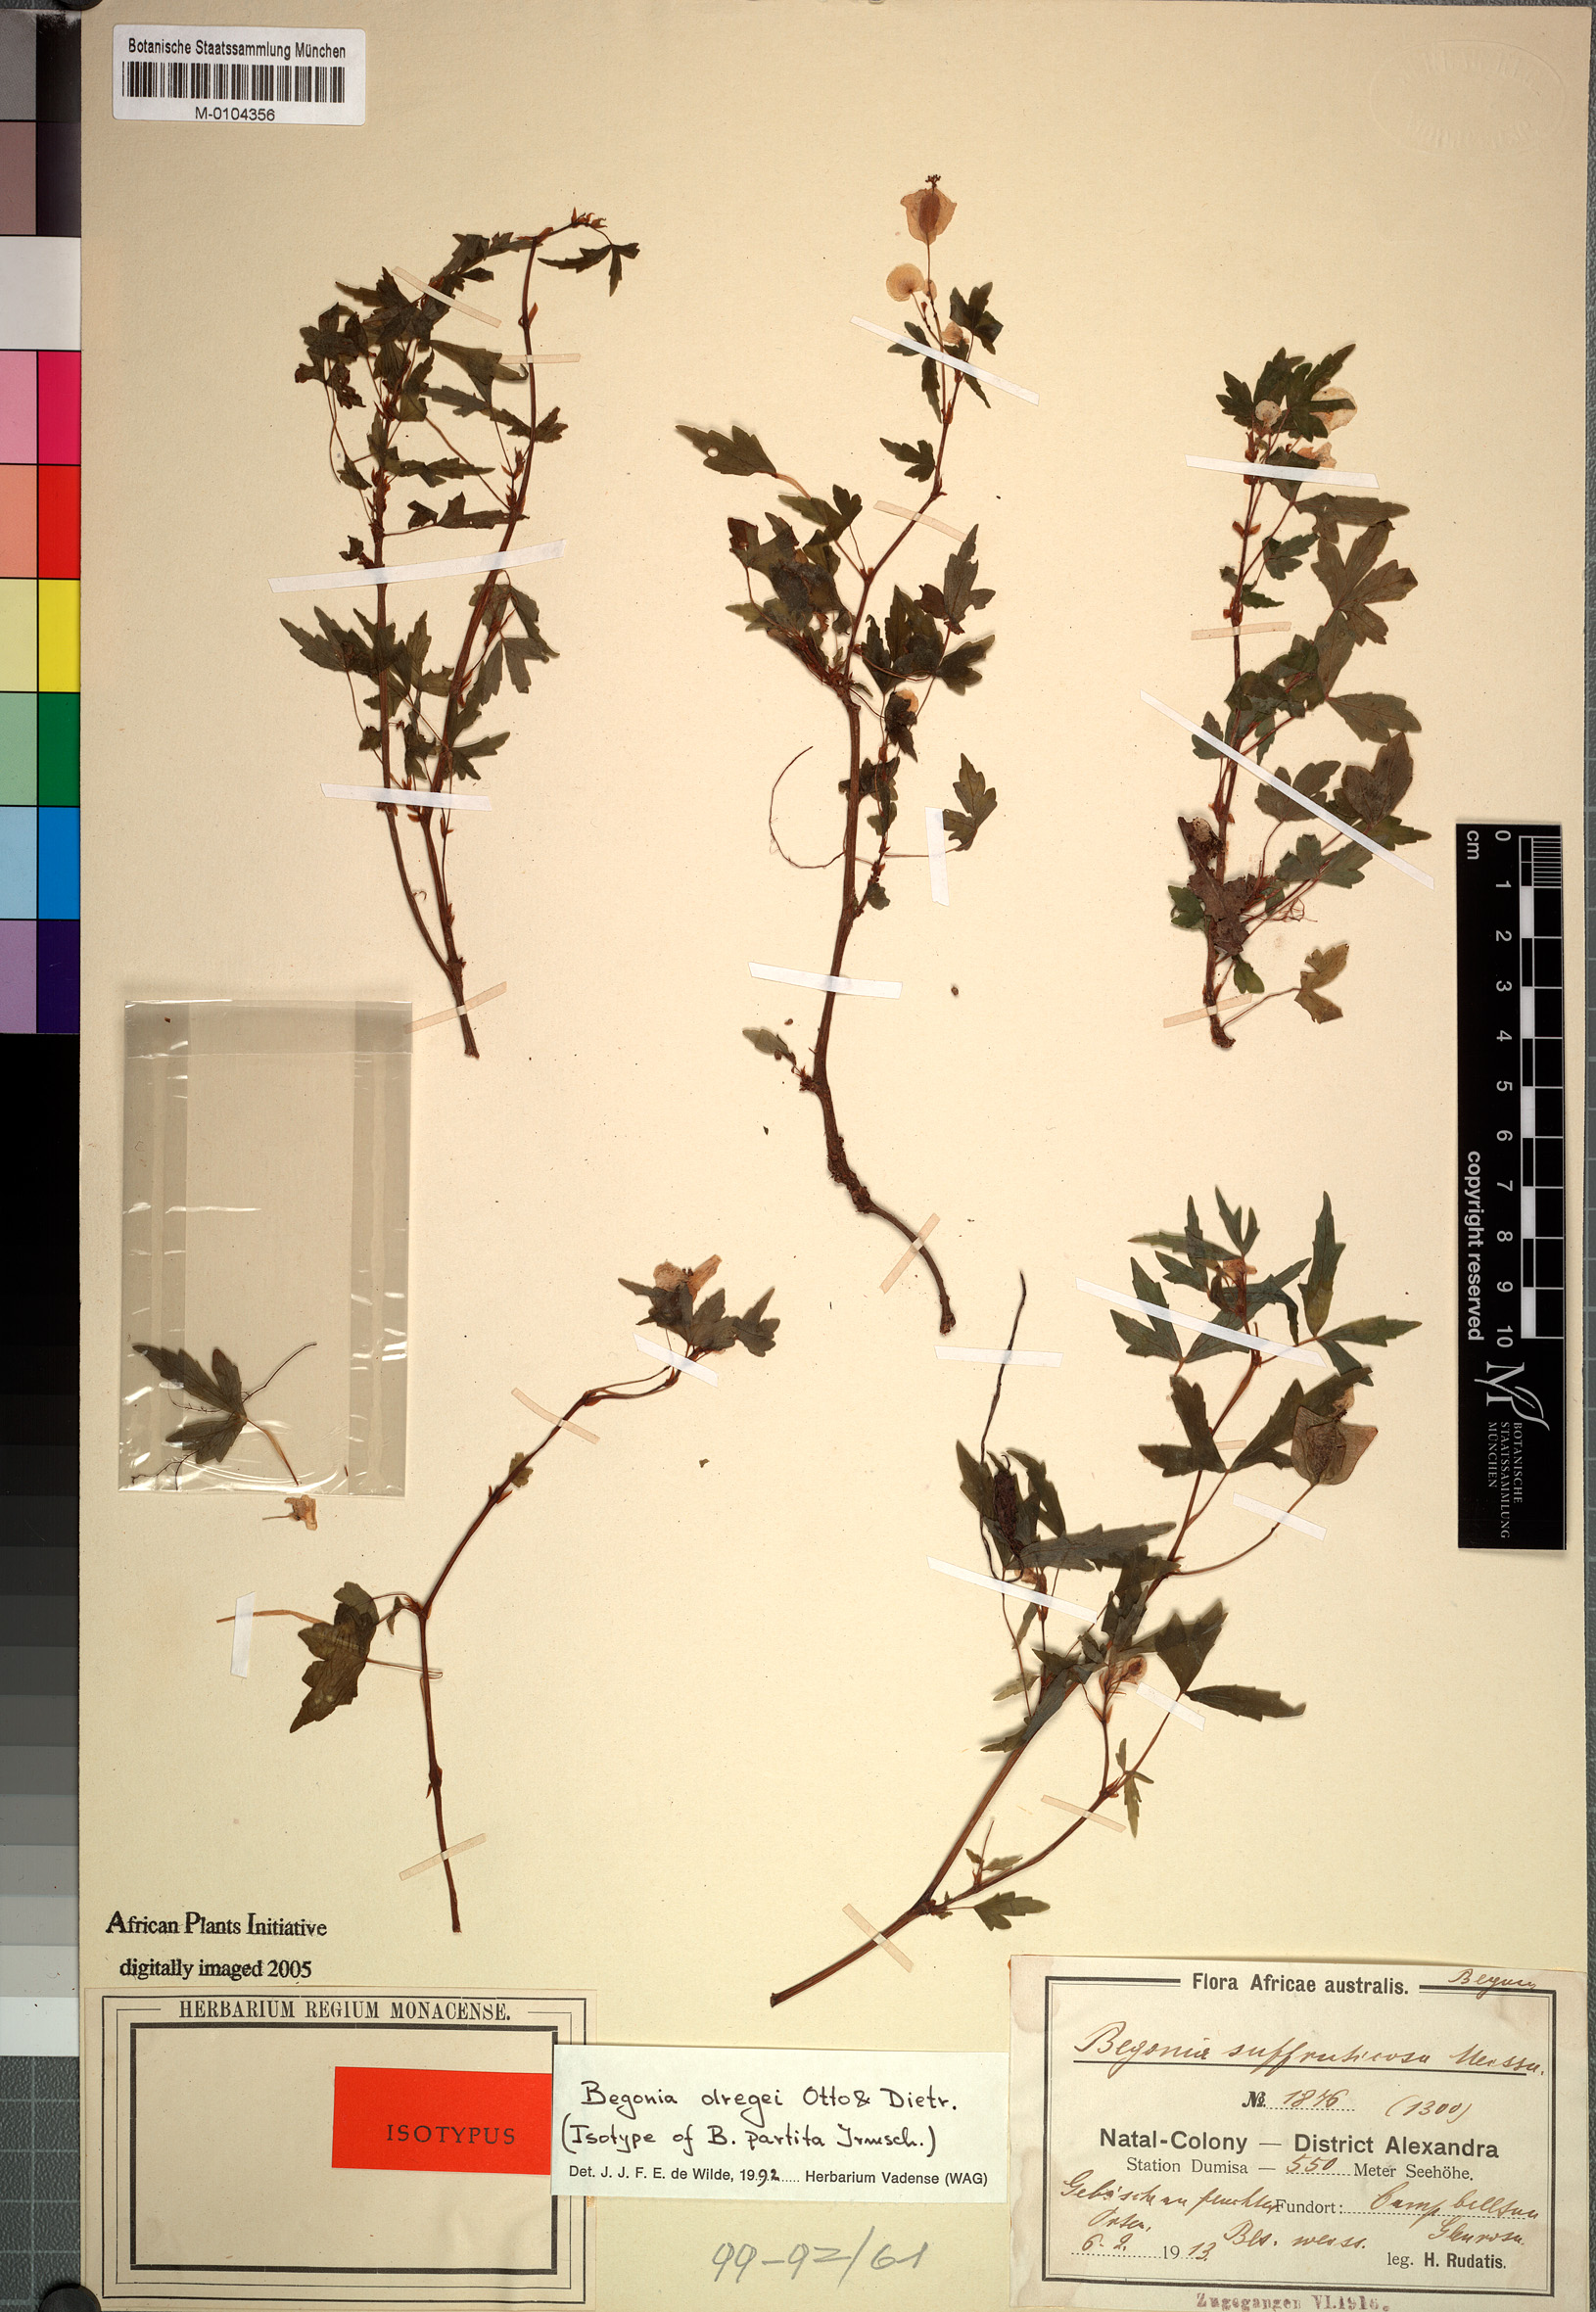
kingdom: Plantae
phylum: Tracheophyta
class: Magnoliopsida
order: Cucurbitales
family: Begoniaceae
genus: Begonia
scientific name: Begonia dregei
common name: Grape-leaf begonia
